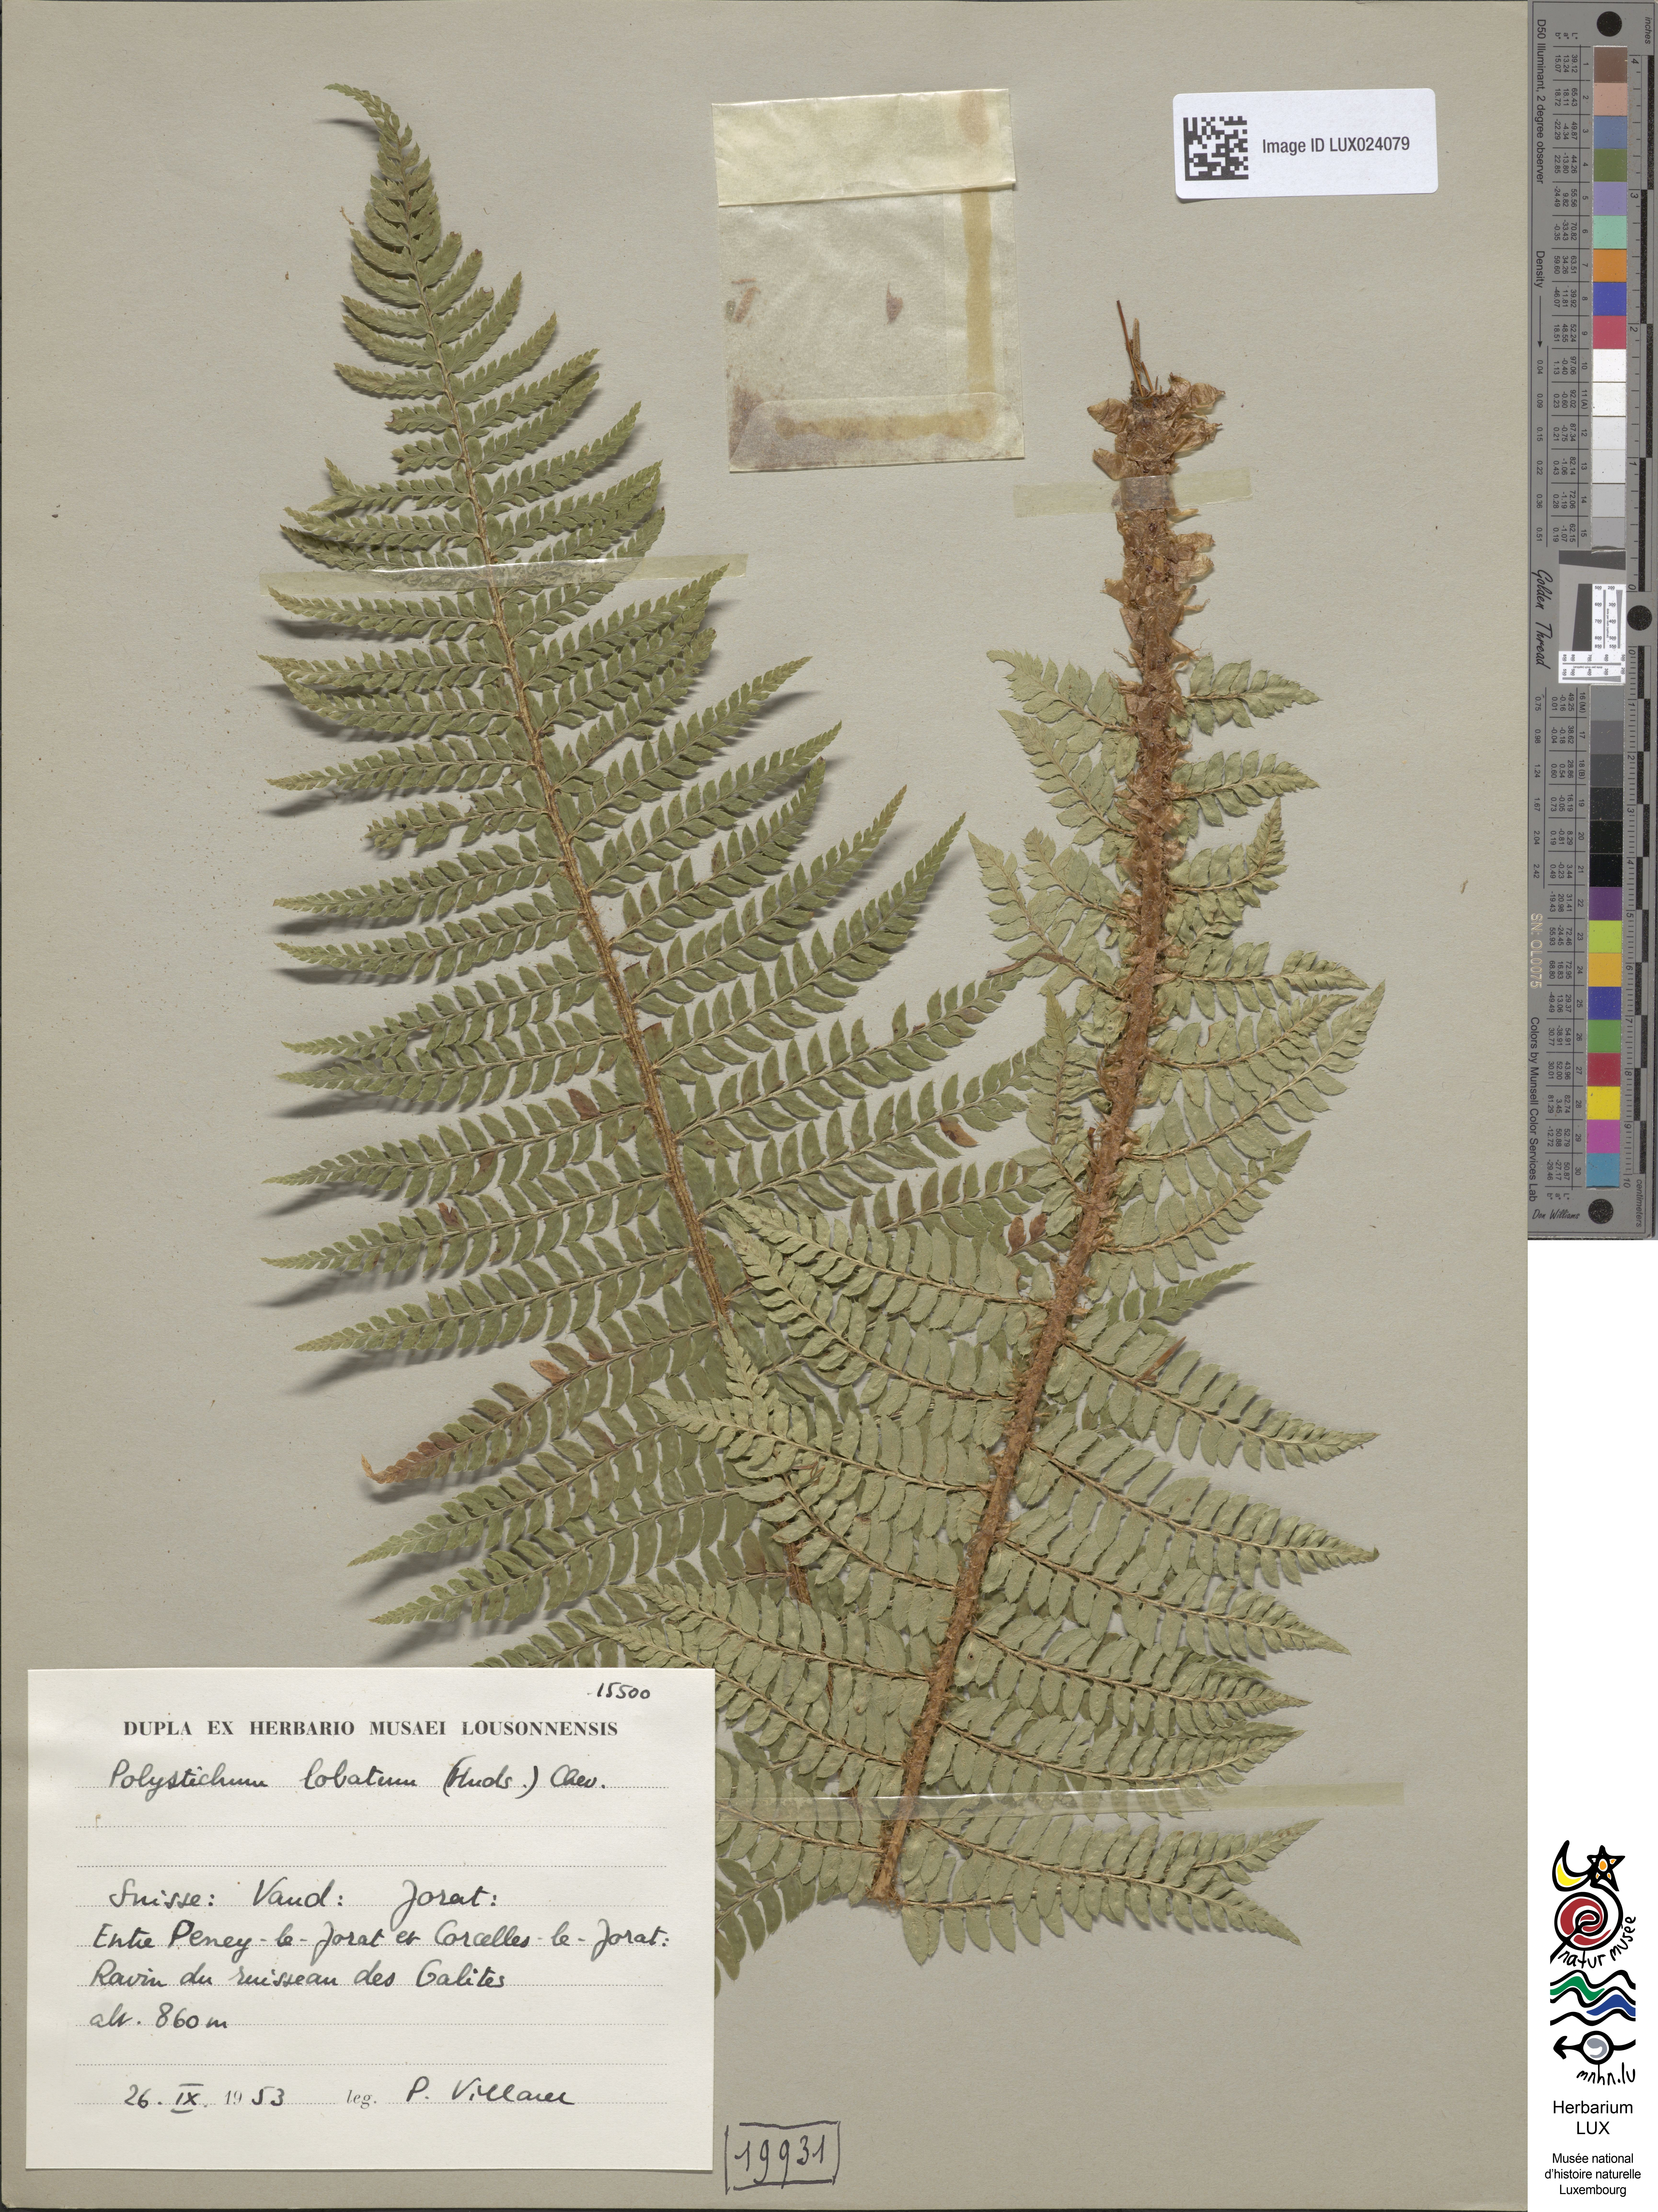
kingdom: Plantae
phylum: Tracheophyta
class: Polypodiopsida
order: Polypodiales
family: Dryopteridaceae
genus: Polystichum
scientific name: Polystichum aculeatum
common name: Hard shield-fern
